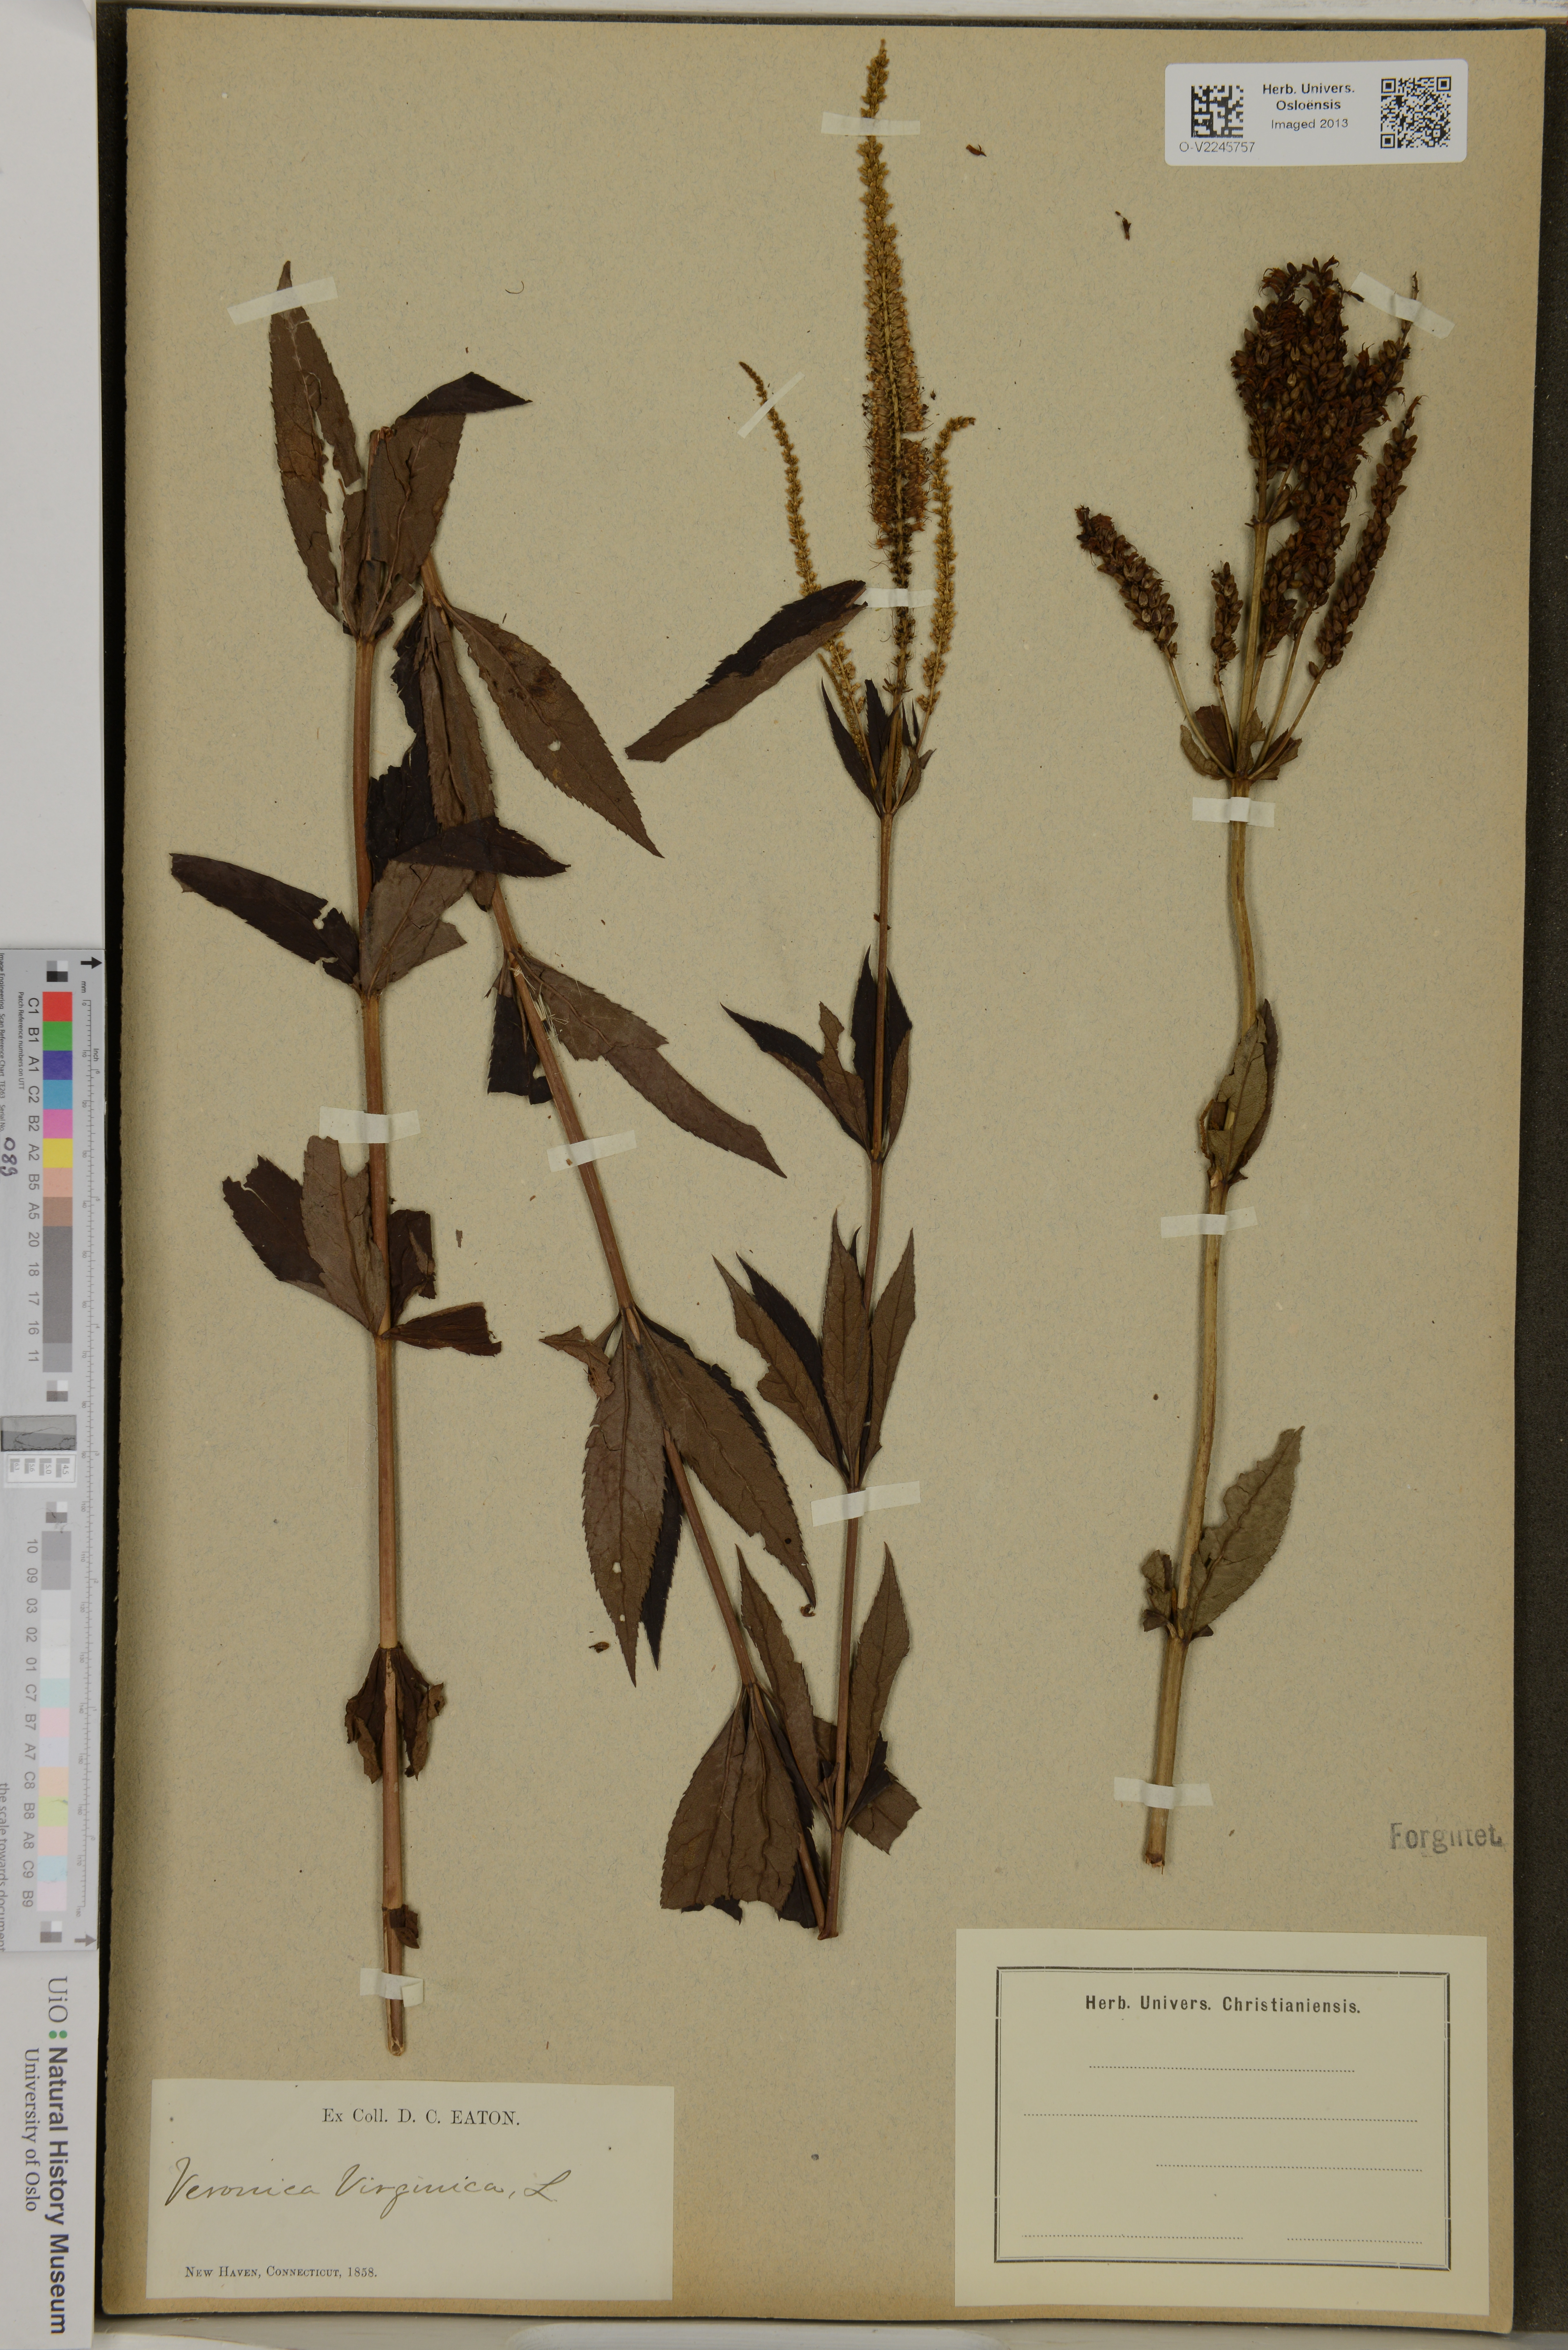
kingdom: Plantae
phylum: Tracheophyta
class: Magnoliopsida
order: Lamiales
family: Plantaginaceae
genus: Veronicastrum
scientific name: Veronicastrum virginicum
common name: Blackroot
